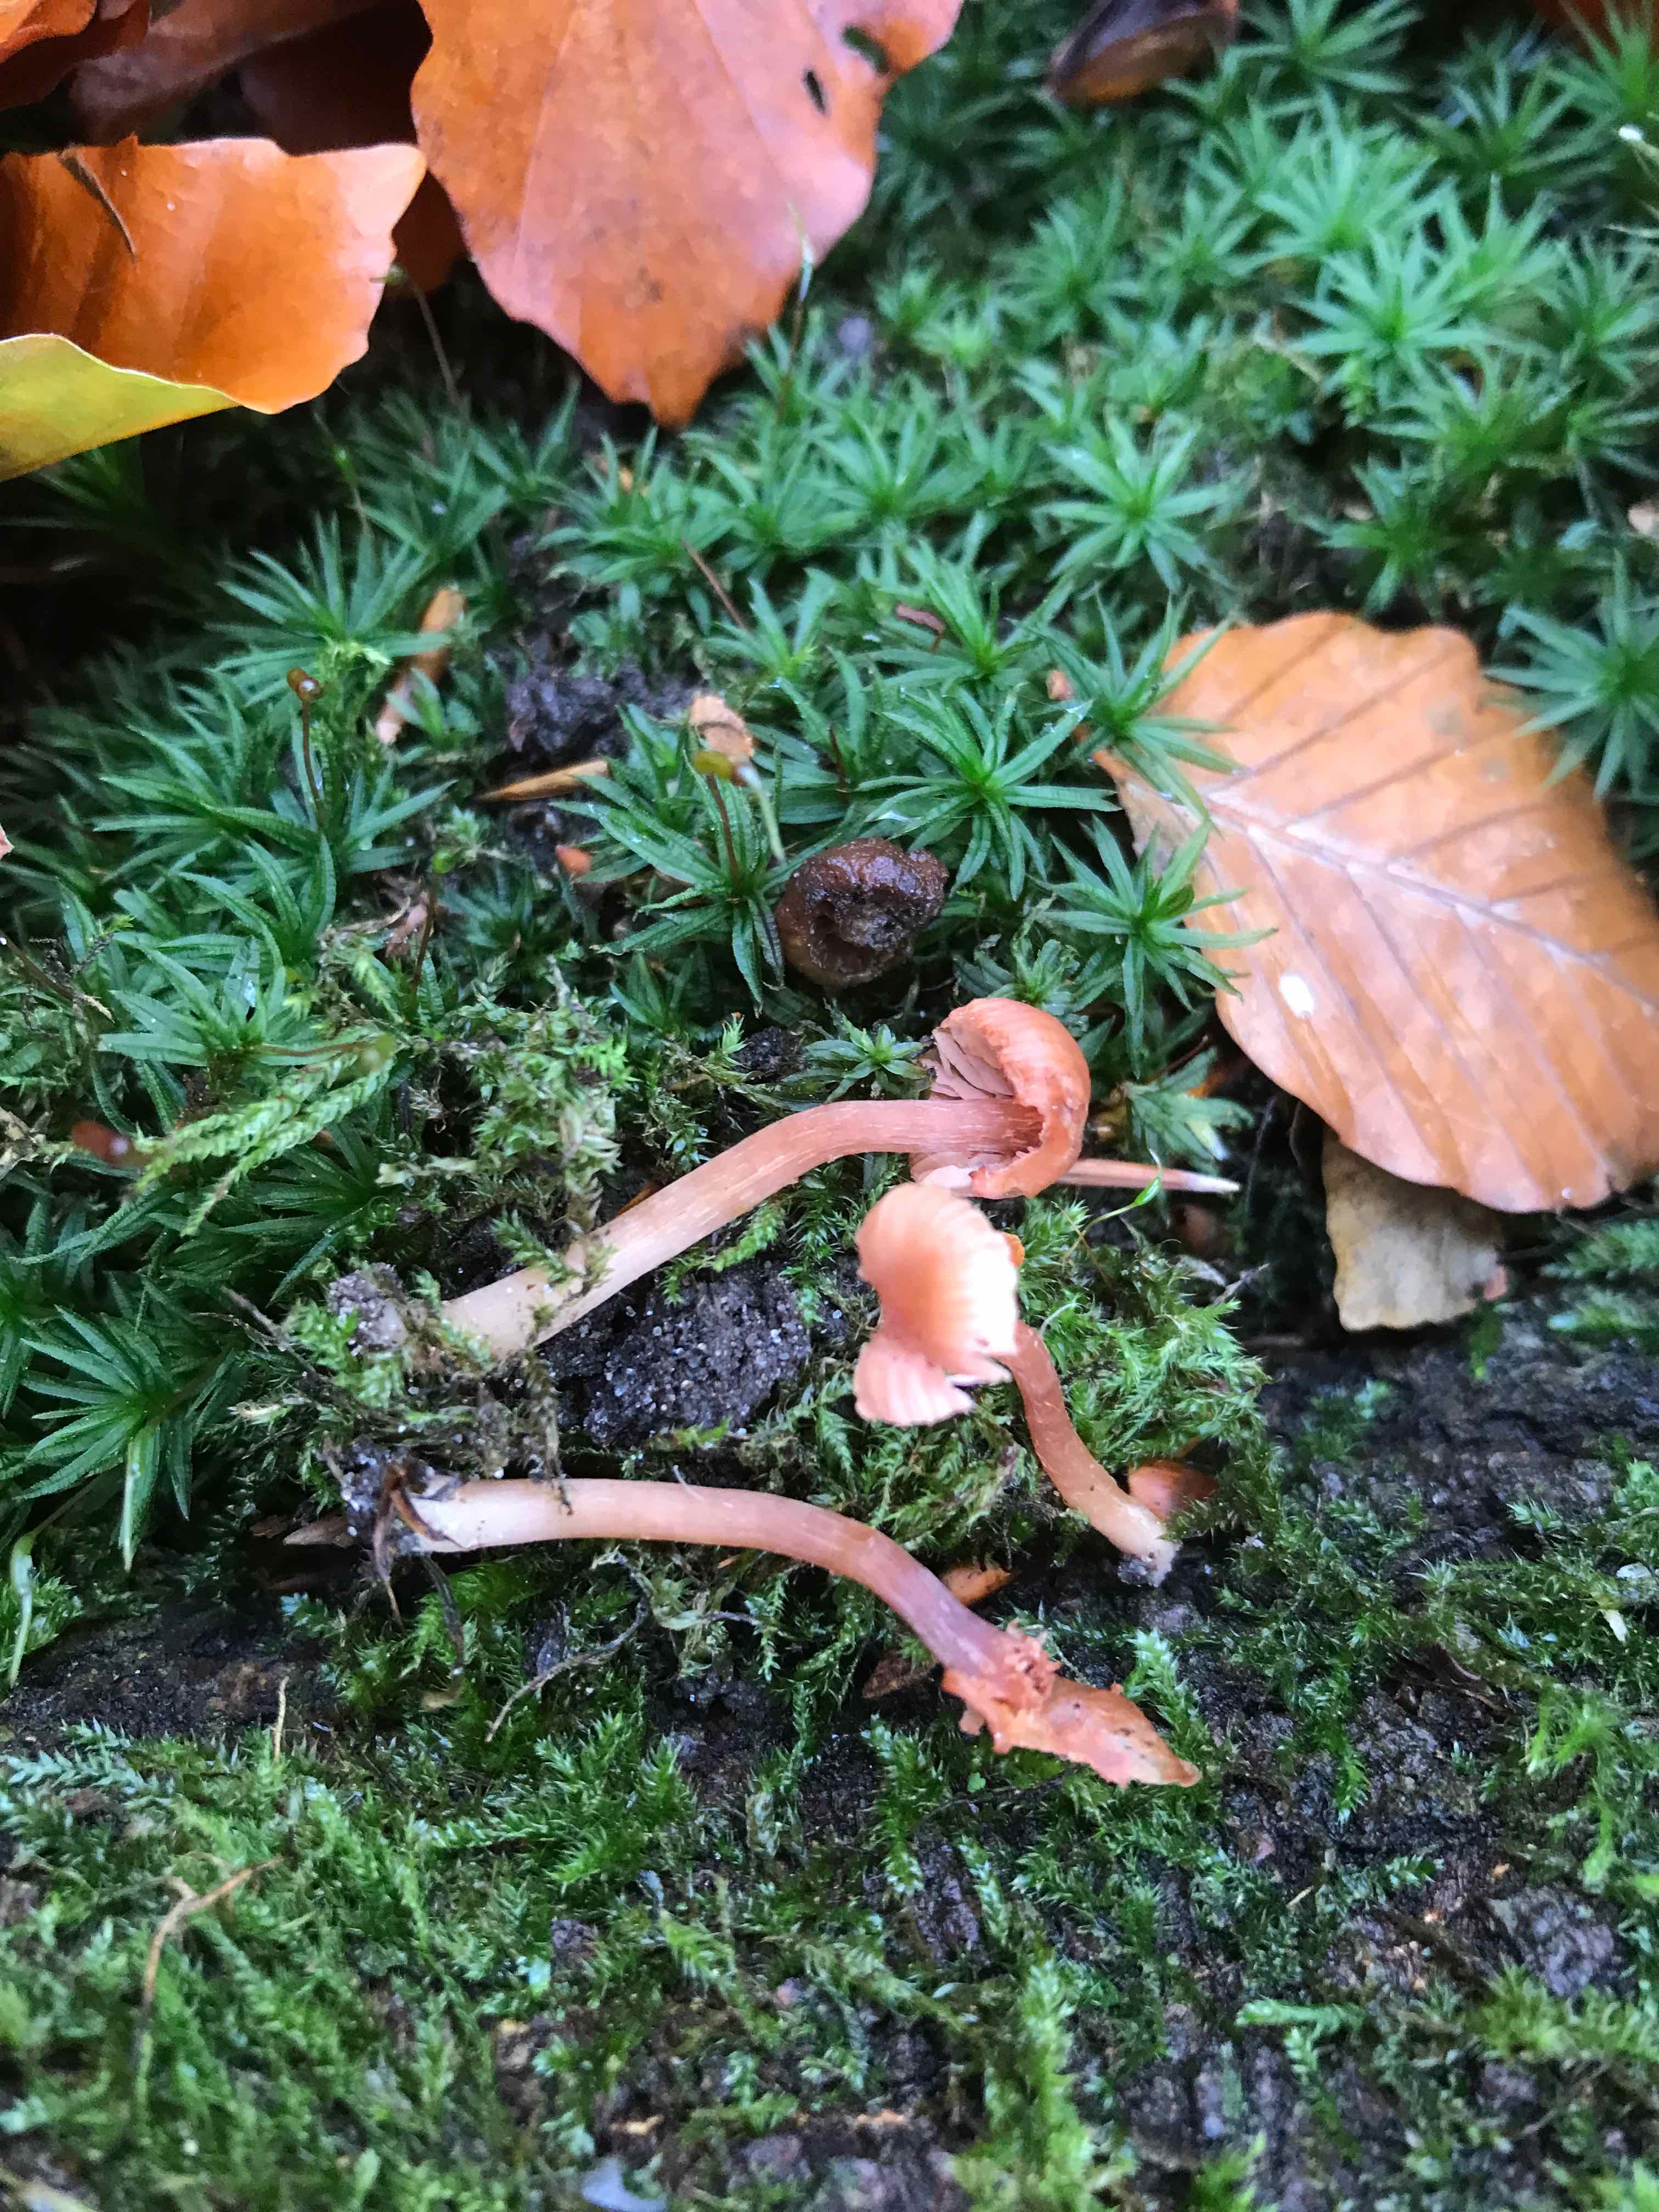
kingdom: Fungi
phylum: Basidiomycota
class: Agaricomycetes
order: Agaricales
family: Hydnangiaceae
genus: Laccaria
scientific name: Laccaria laccata
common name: rød ametysthat
